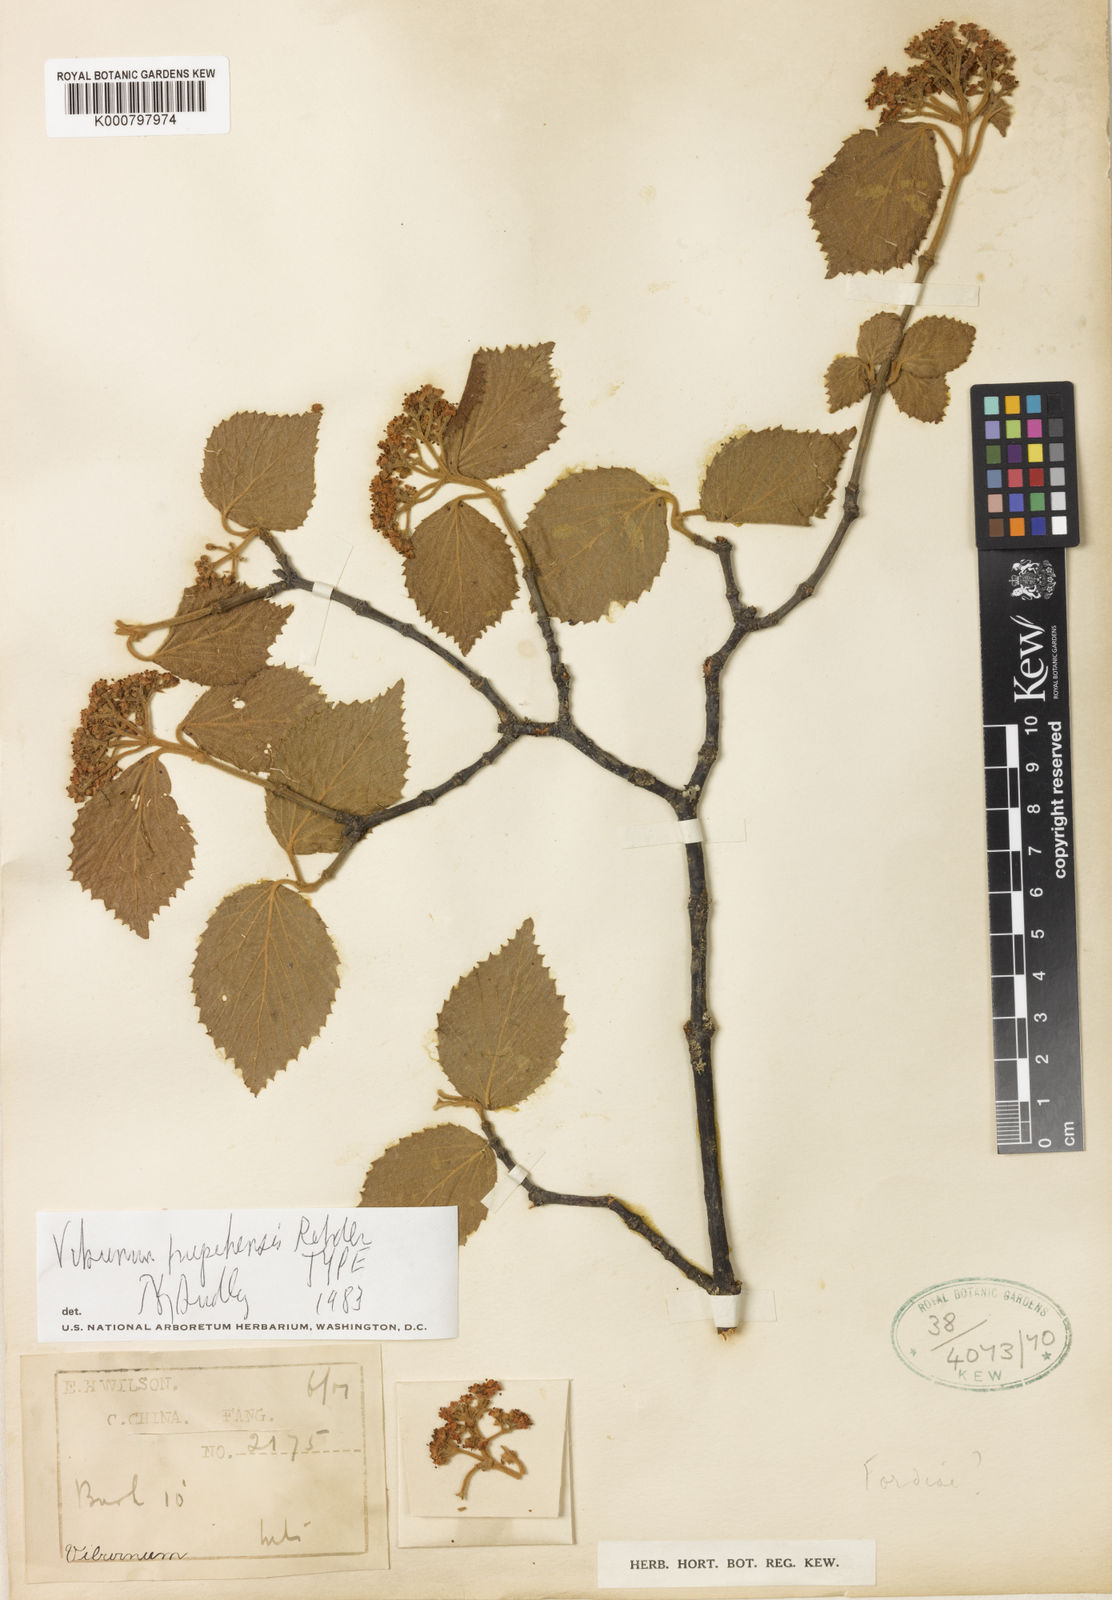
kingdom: Plantae
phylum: Tracheophyta
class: Magnoliopsida
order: Dipsacales
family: Viburnaceae
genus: Viburnum
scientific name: Viburnum
